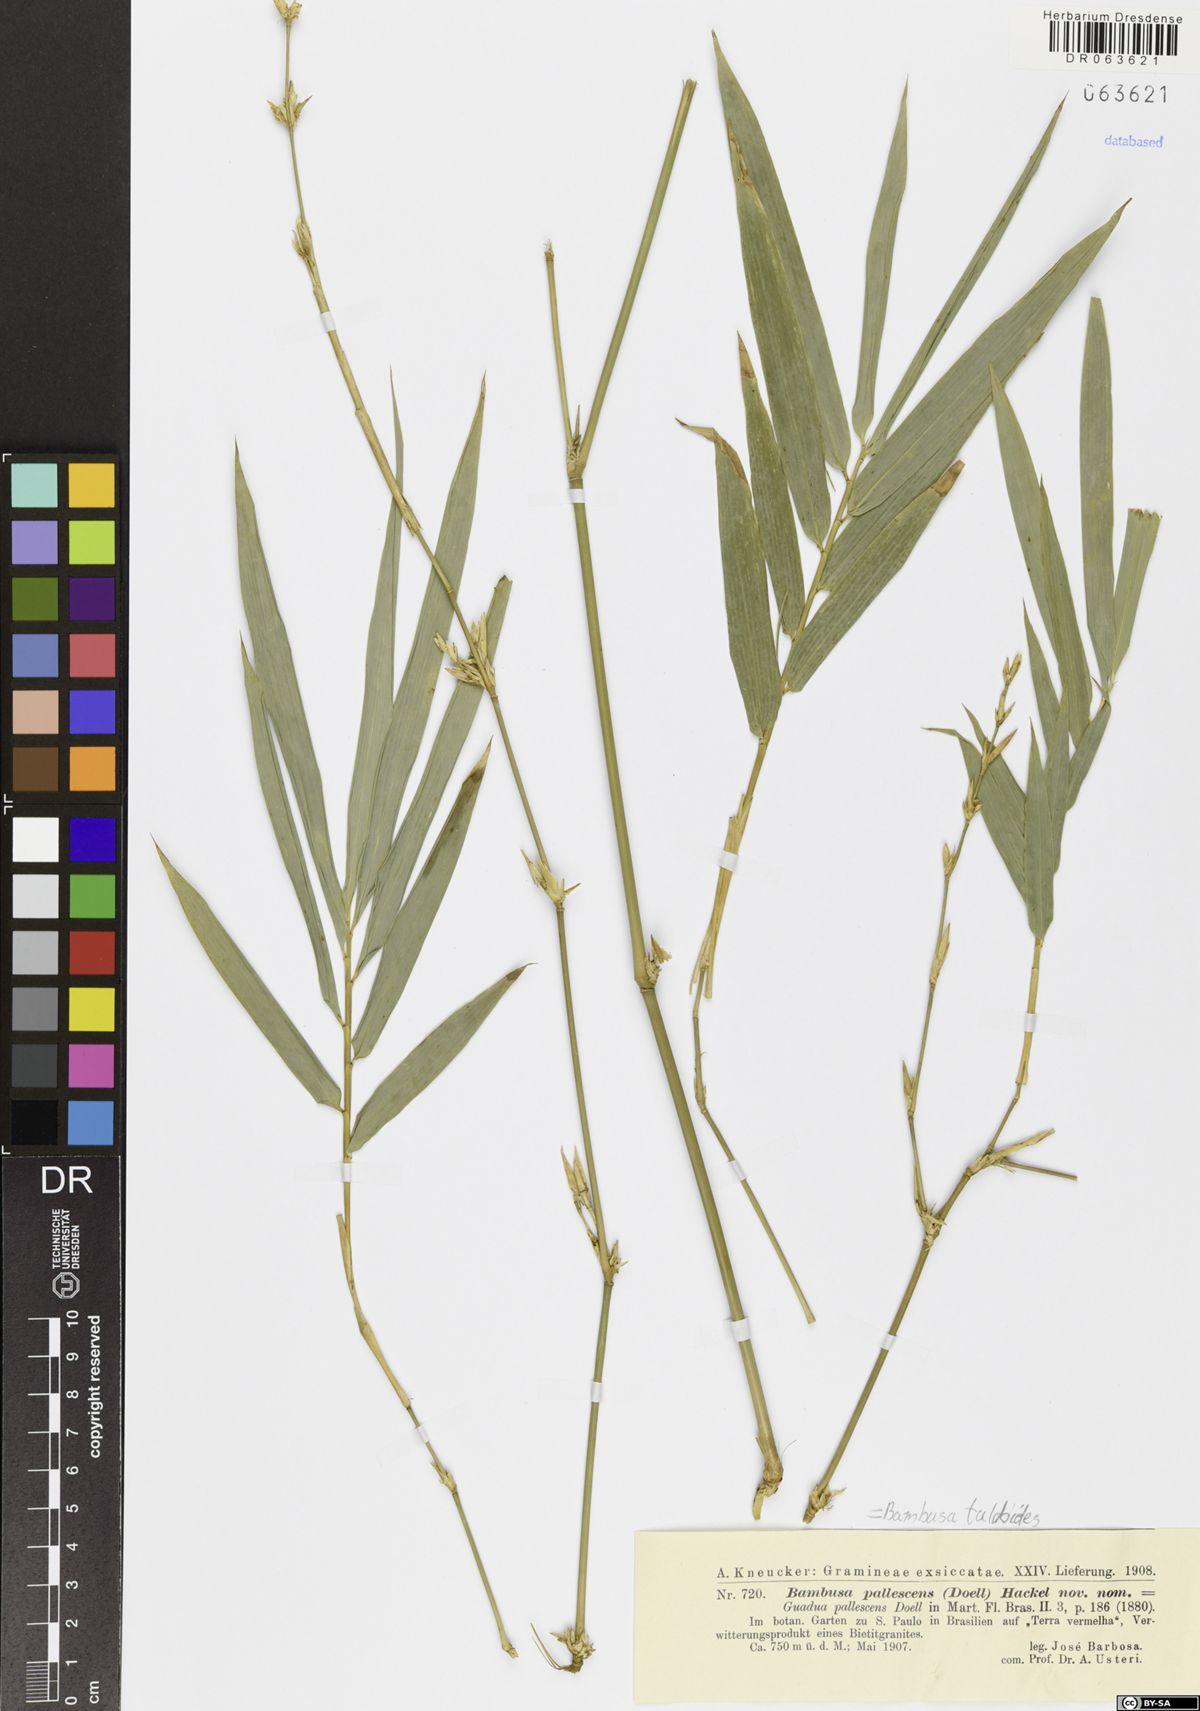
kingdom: Plantae
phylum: Tracheophyta
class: Liliopsida
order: Poales
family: Poaceae
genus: Bambusa
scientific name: Bambusa tuldoides
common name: Verdant bamboo
